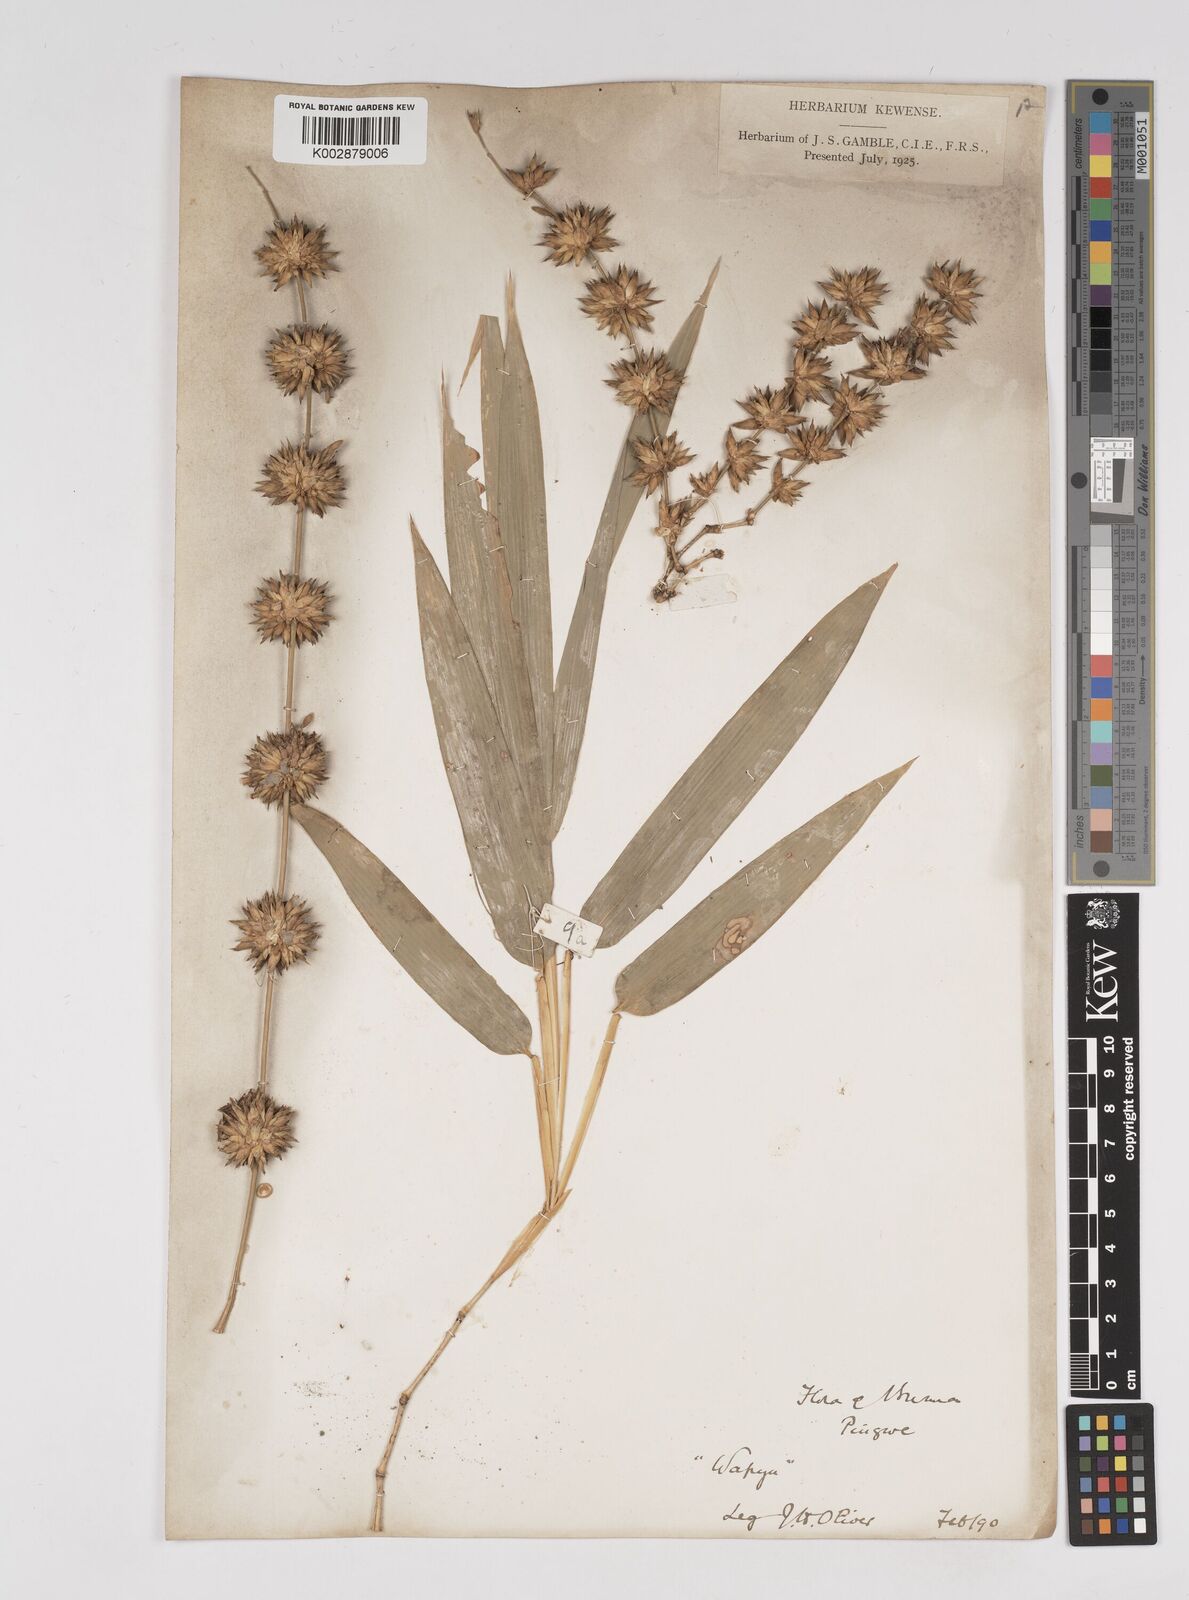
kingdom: Plantae
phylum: Tracheophyta
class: Liliopsida
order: Poales
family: Poaceae
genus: Dendrocalamus
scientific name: Dendrocalamus membranaceus
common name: White bamboo
